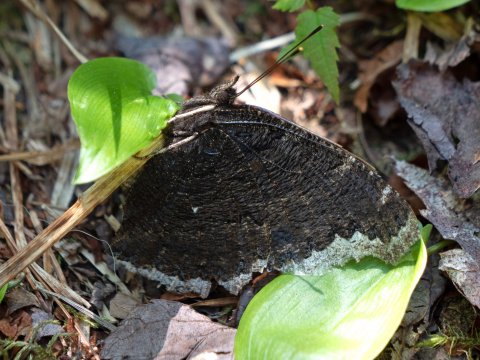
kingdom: Animalia
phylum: Arthropoda
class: Insecta
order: Lepidoptera
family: Nymphalidae
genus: Nymphalis
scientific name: Nymphalis antiopa
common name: Mourning Cloak
